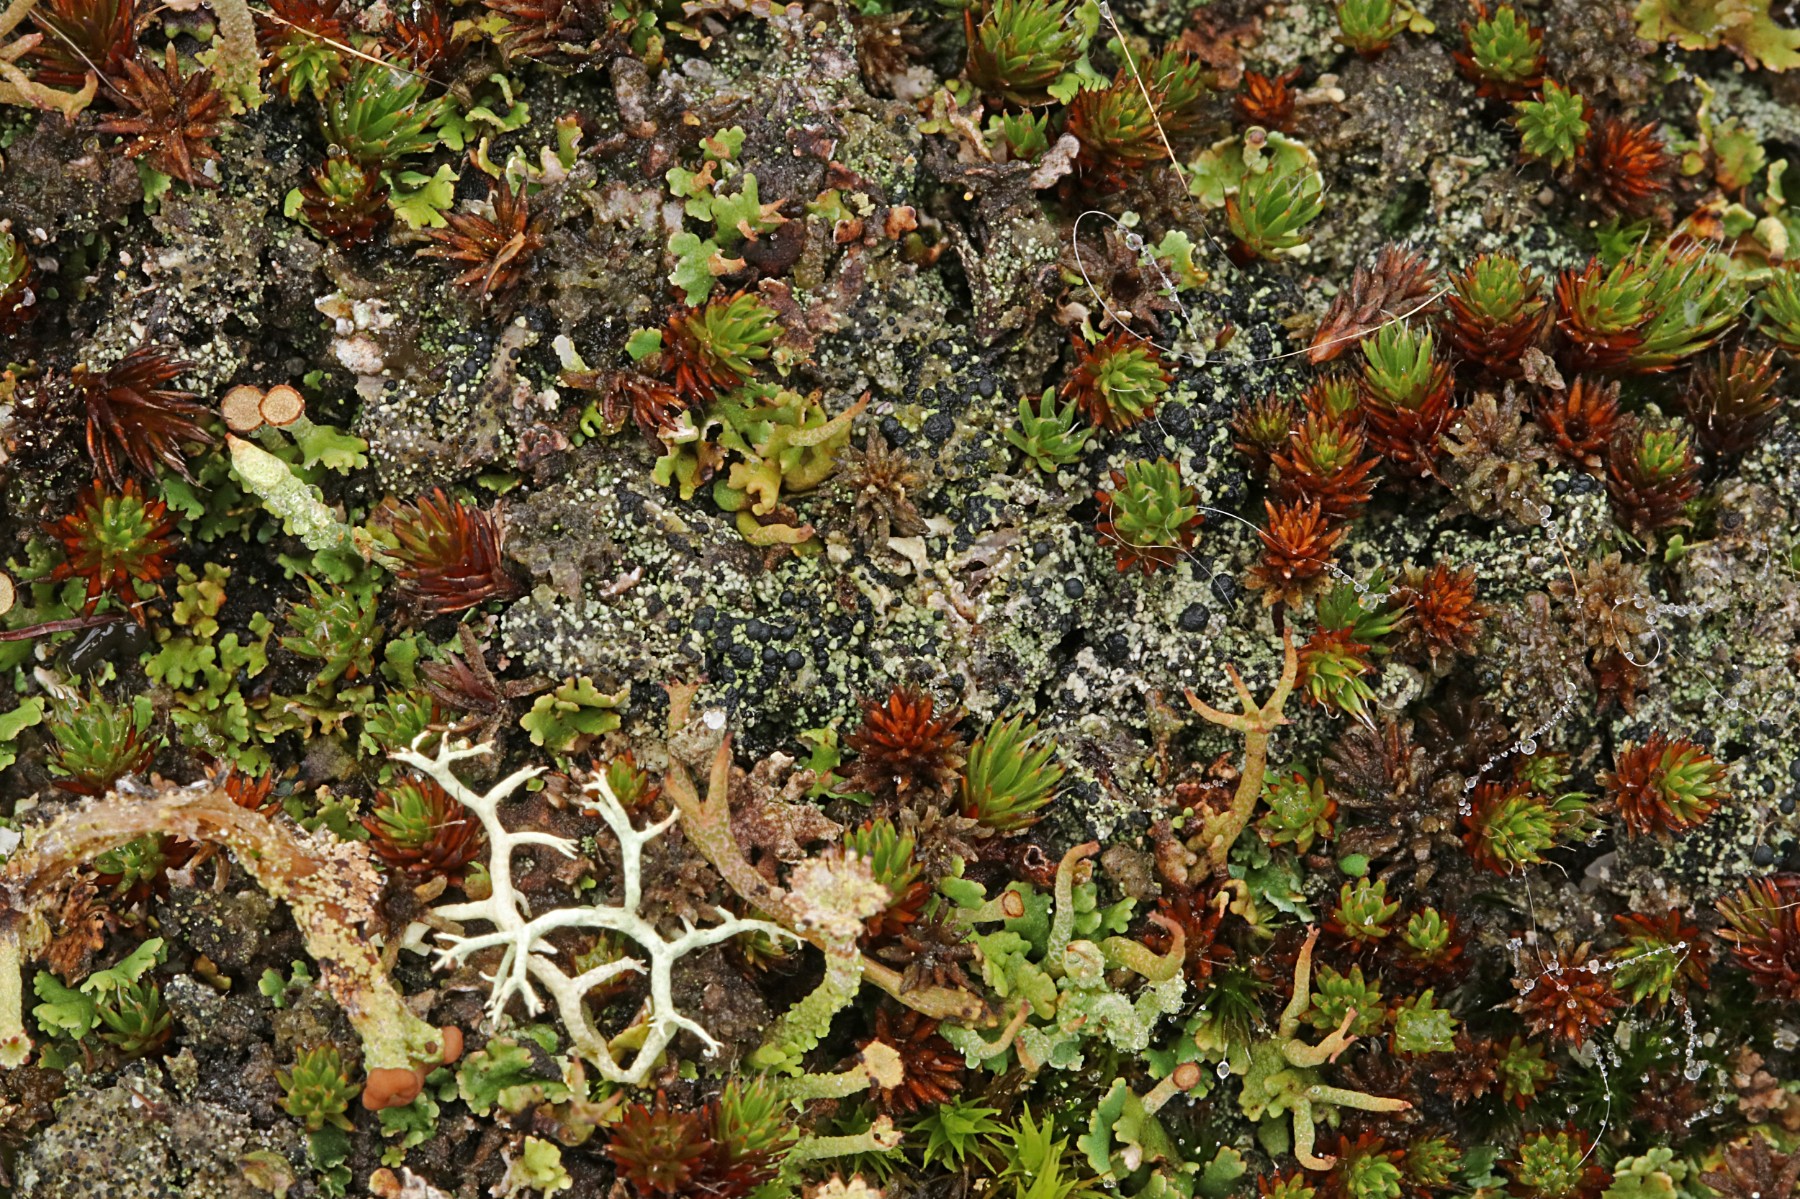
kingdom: Fungi
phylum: Ascomycota
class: Lecanoromycetes
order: Lecanorales
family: Byssolomataceae
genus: Micarea
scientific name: Micarea lignaria
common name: tørve-knaplav
